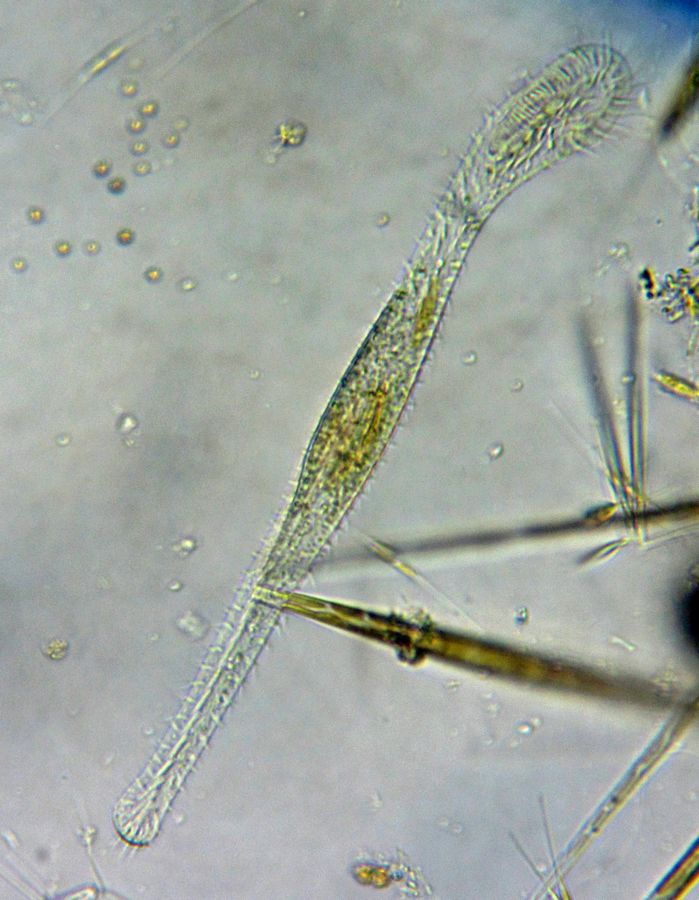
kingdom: Chromista
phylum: Ciliophora
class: Hypotrichea
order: Stichotrichida
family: Epiclintidae
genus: Epiclintes
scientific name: Epiclintes felis
